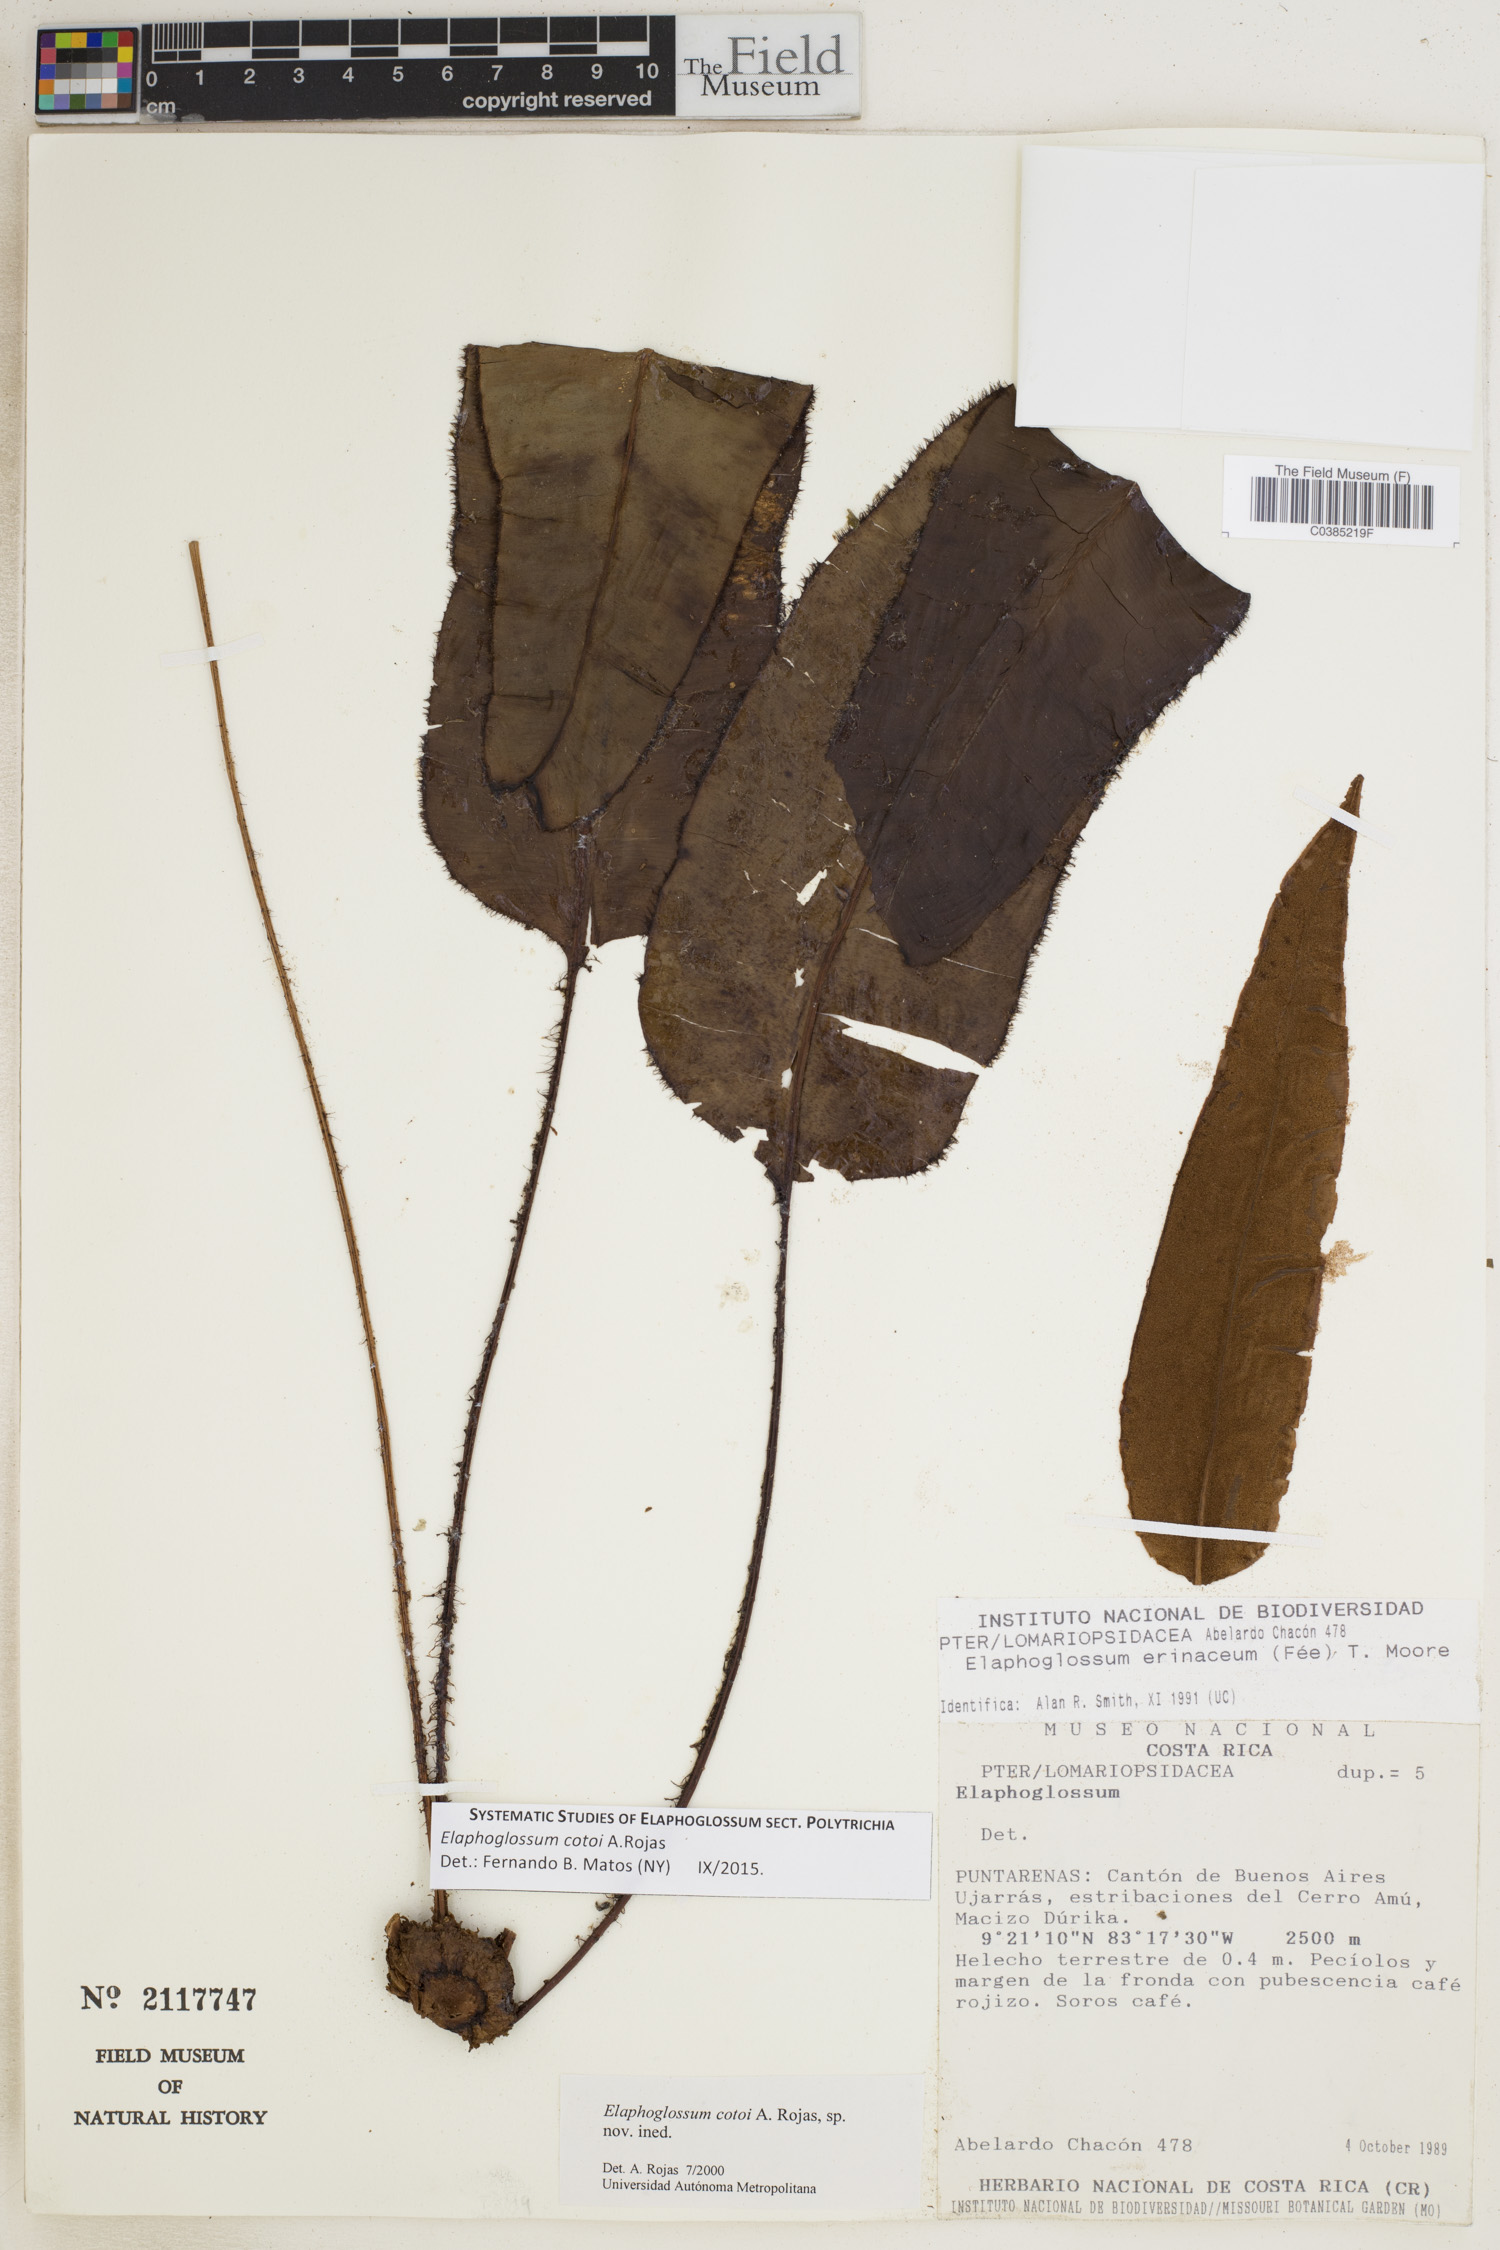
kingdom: Plantae
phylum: Tracheophyta
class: Polypodiopsida
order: Polypodiales
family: Dryopteridaceae
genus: Elaphoglossum
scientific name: Elaphoglossum cotoi
